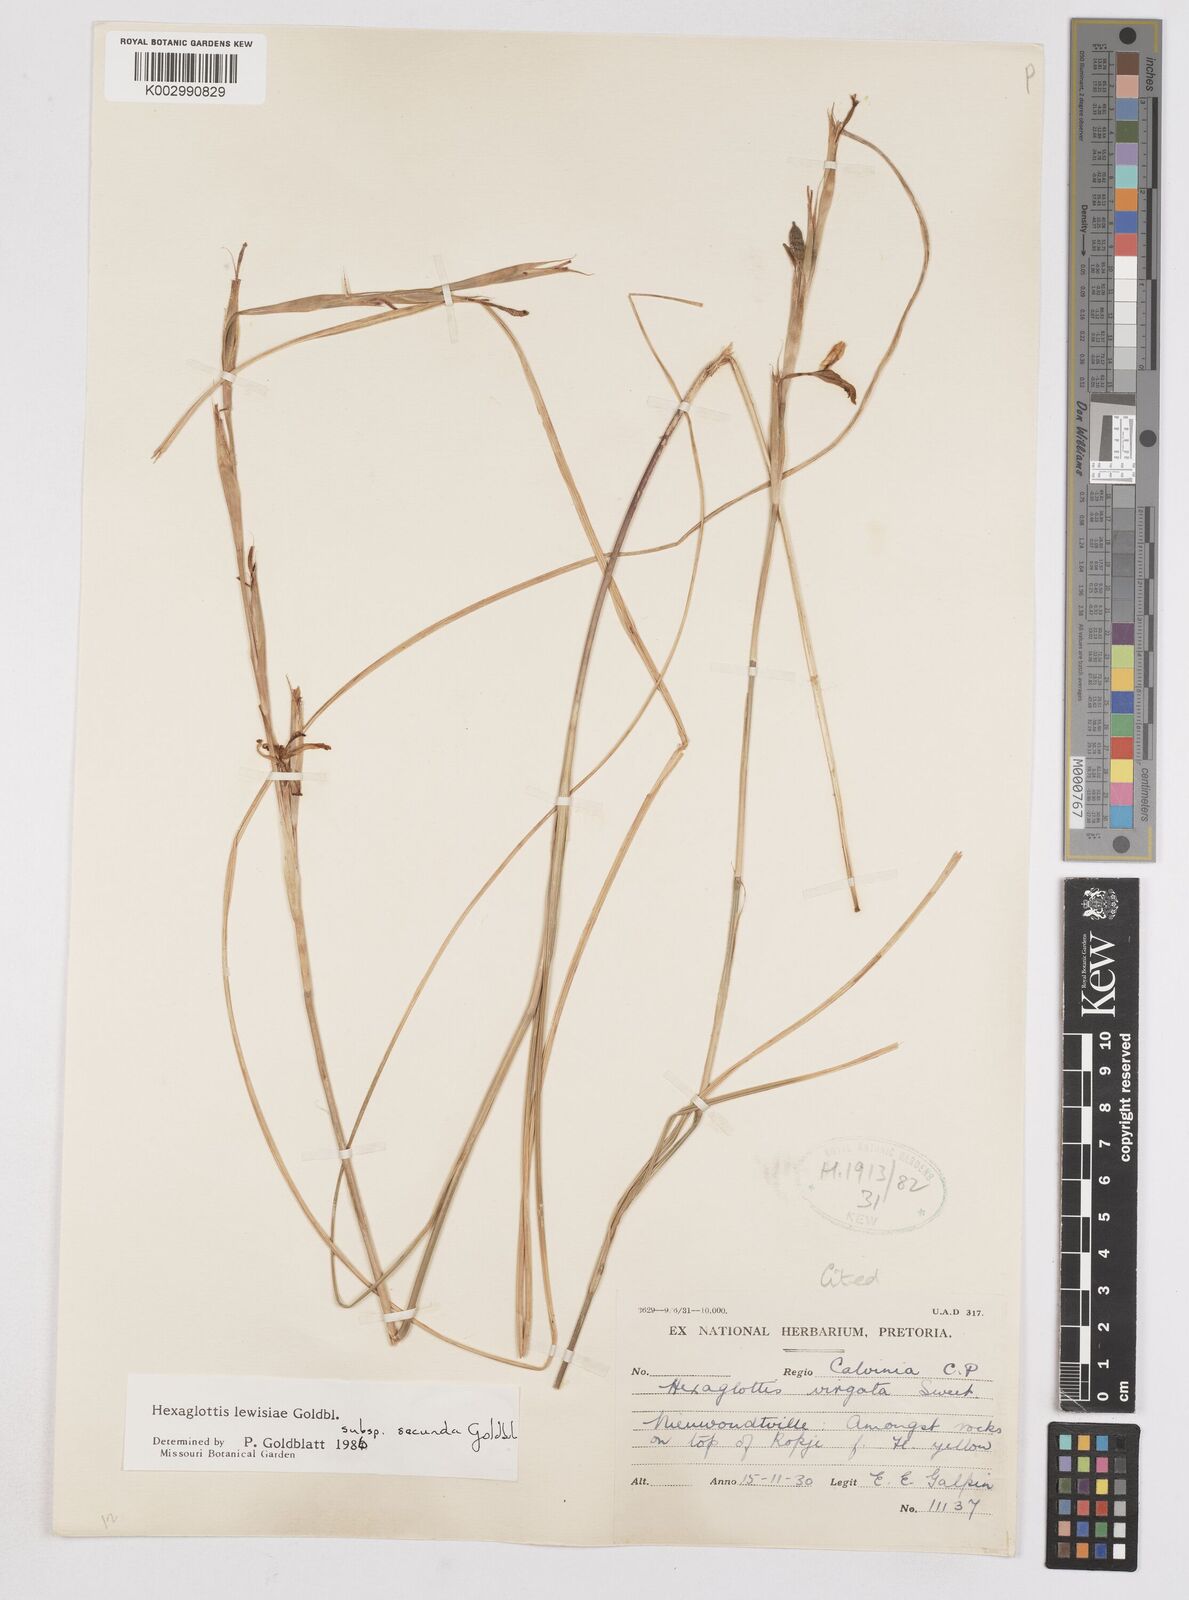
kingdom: Plantae
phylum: Tracheophyta
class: Liliopsida
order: Asparagales
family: Iridaceae
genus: Moraea
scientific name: Moraea lewisiae
